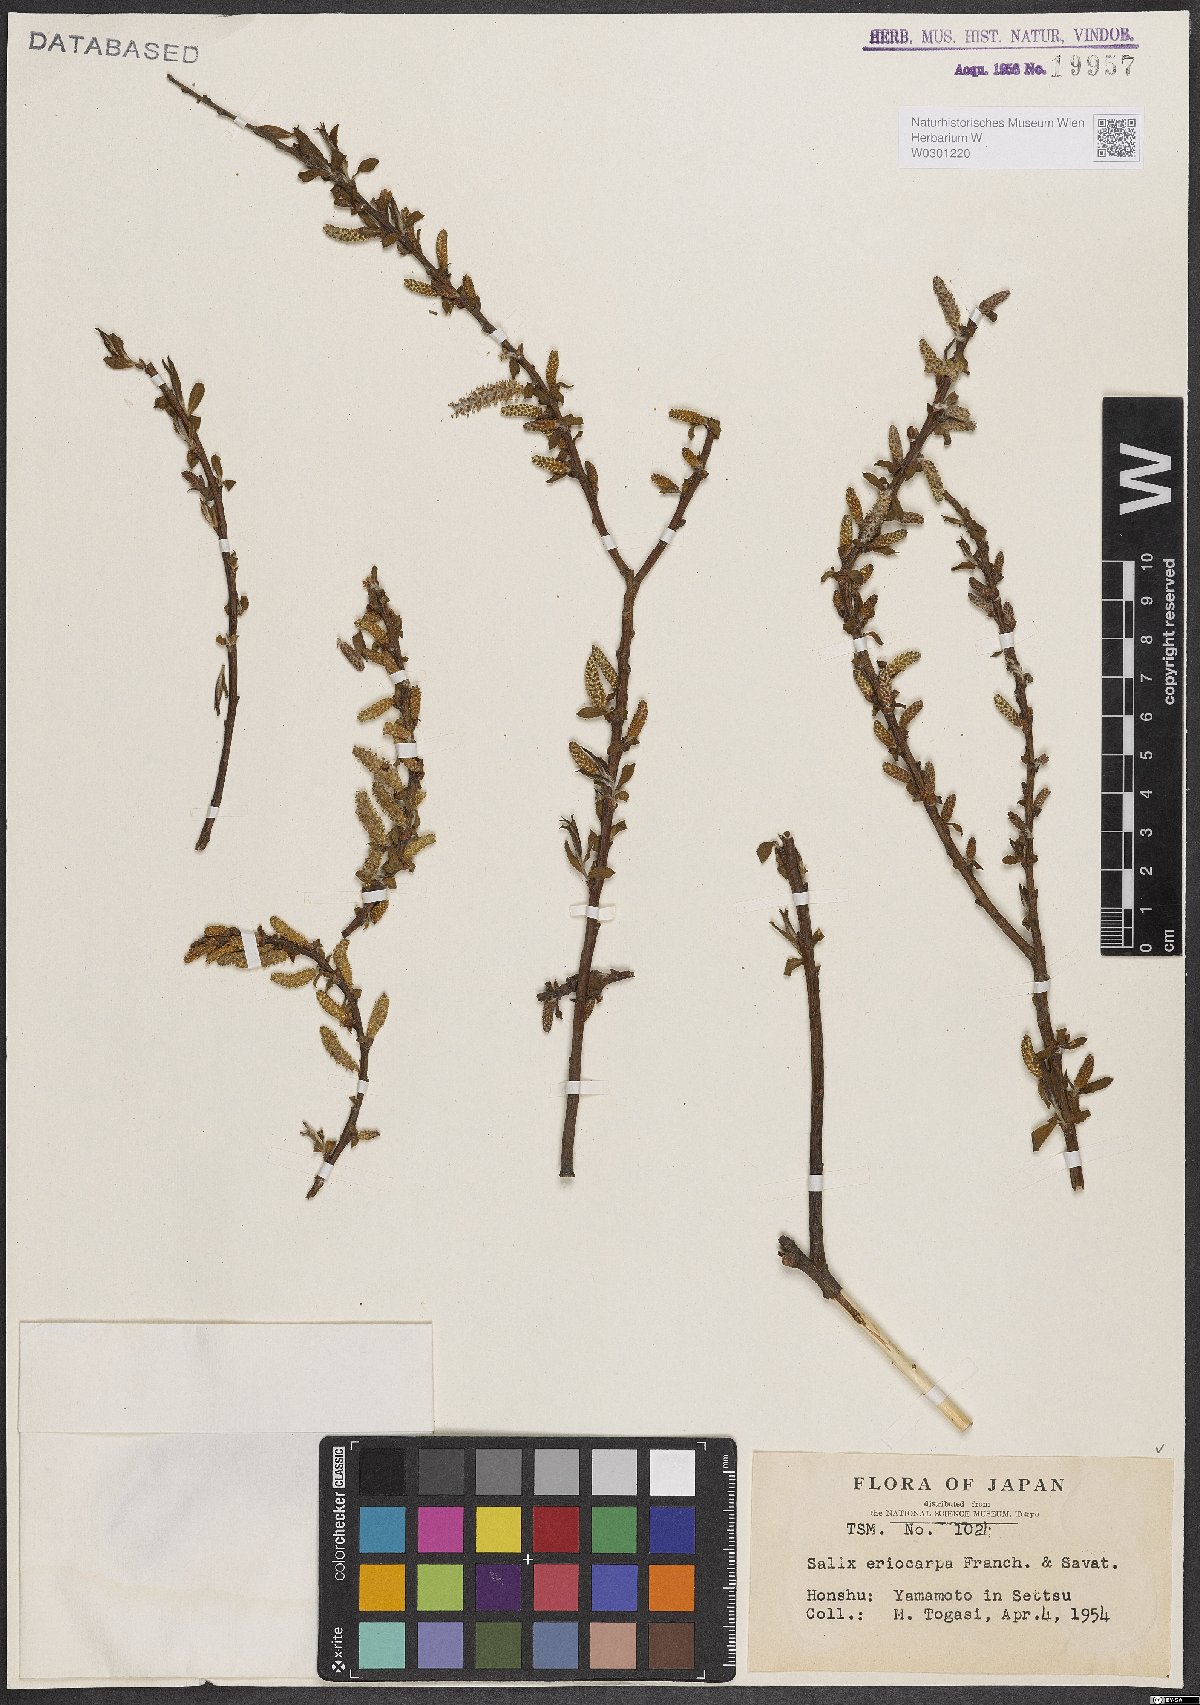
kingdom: Plantae
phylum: Tracheophyta
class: Magnoliopsida
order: Malpighiales
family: Salicaceae
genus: Salix
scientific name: Salix pierotii
